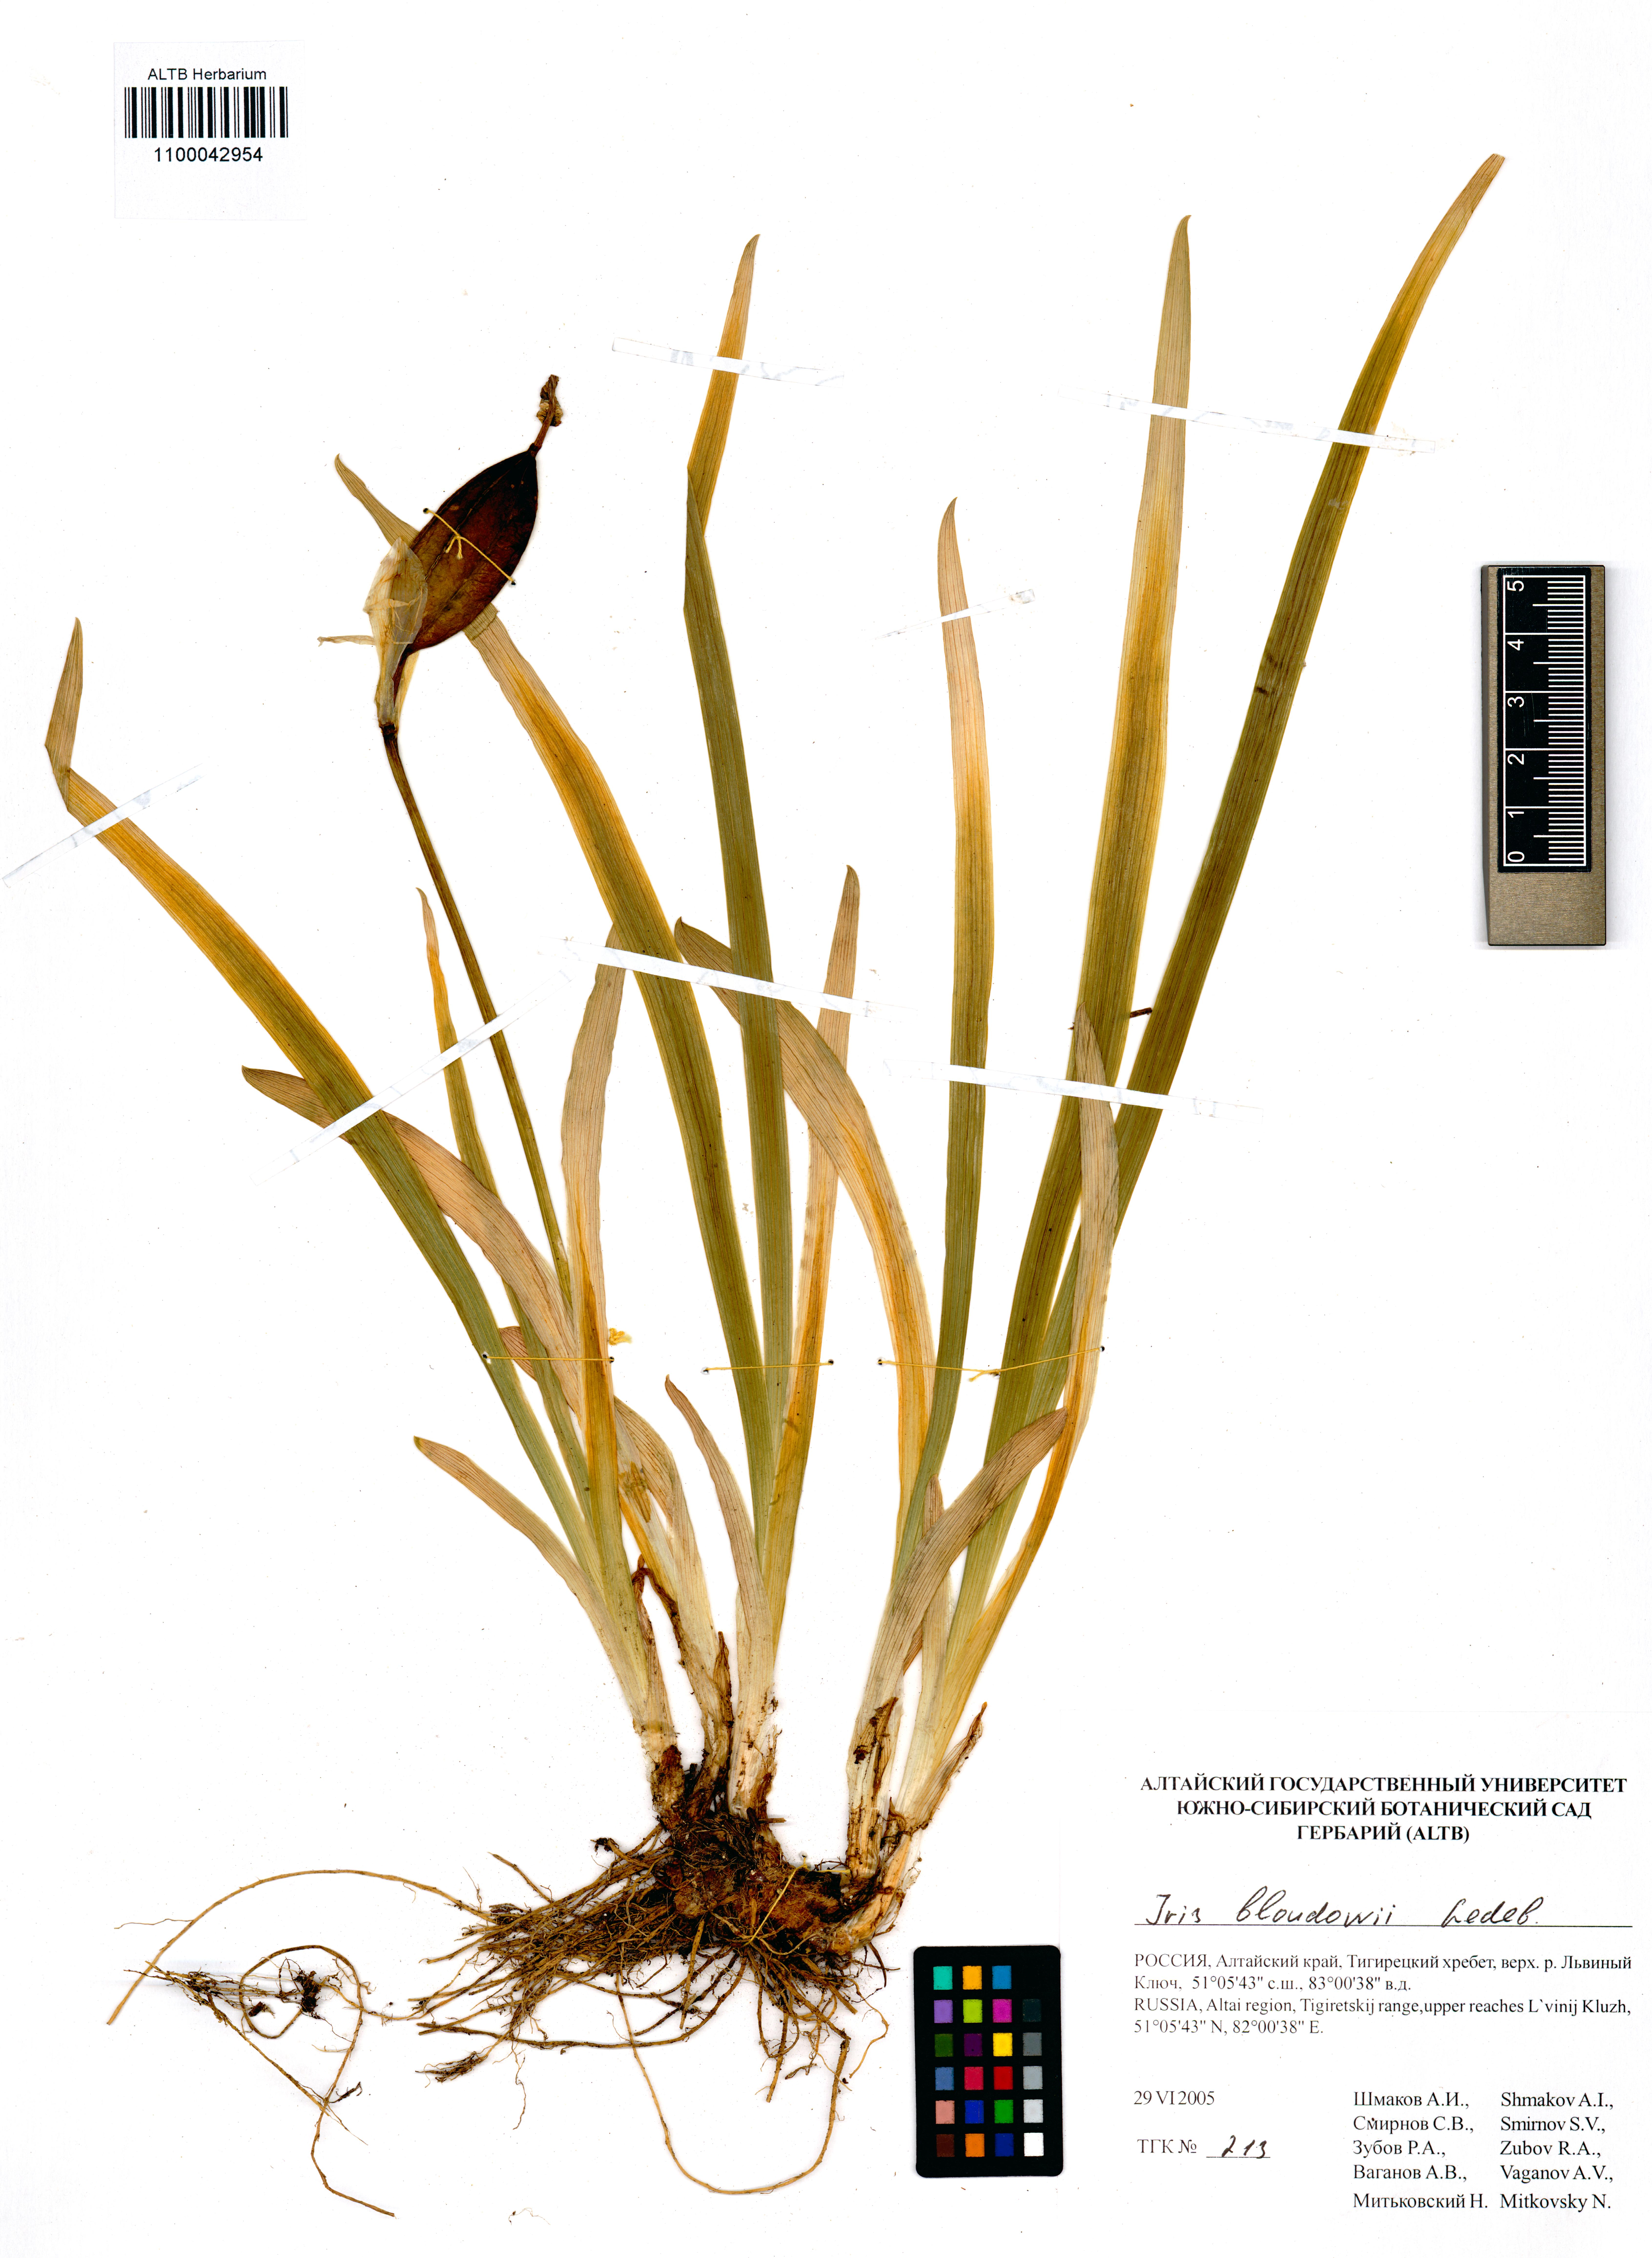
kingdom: Plantae
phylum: Tracheophyta
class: Liliopsida
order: Asparagales
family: Iridaceae
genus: Iris
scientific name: Iris bloudowii
